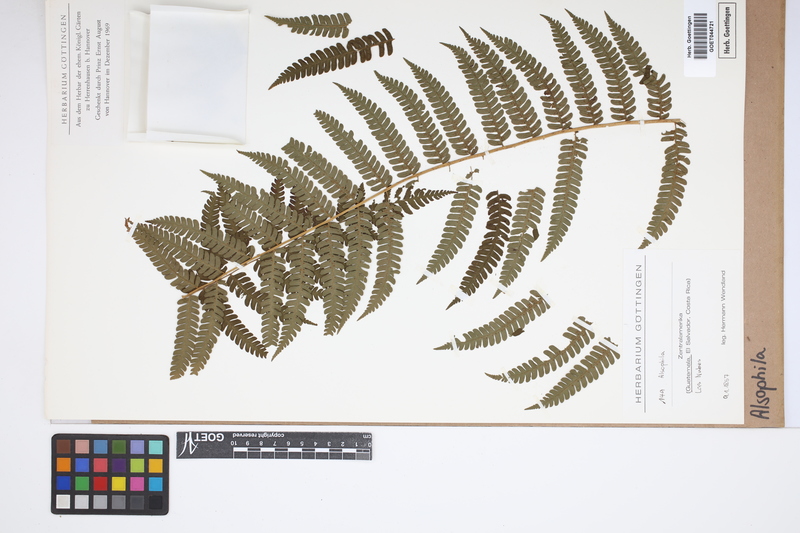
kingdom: Plantae
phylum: Tracheophyta
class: Polypodiopsida
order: Cyatheales
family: Cyatheaceae
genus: Alsophila
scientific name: Alsophila
